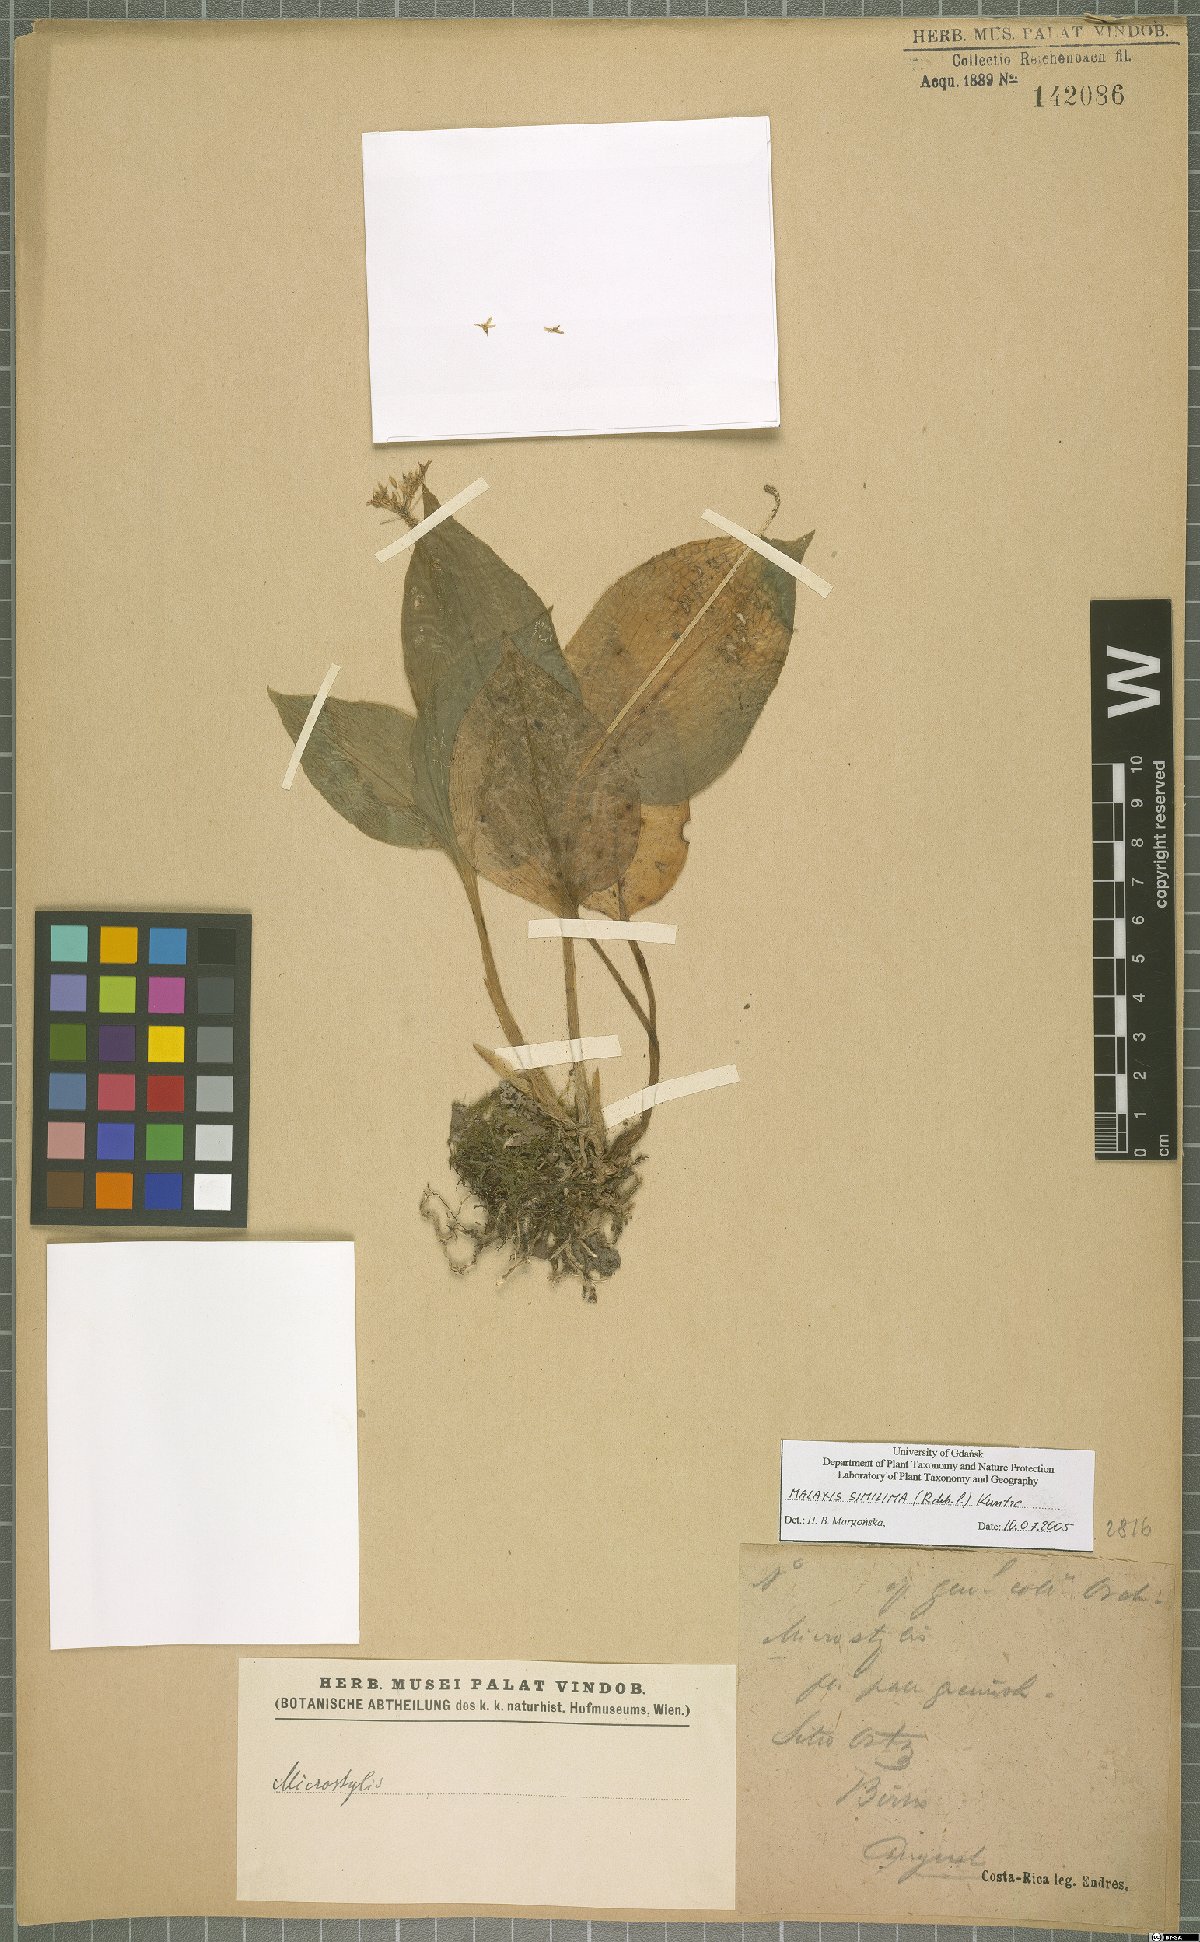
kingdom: Plantae
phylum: Tracheophyta
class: Liliopsida
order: Asparagales
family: Orchidaceae
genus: Malaxis
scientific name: Malaxis simillima
